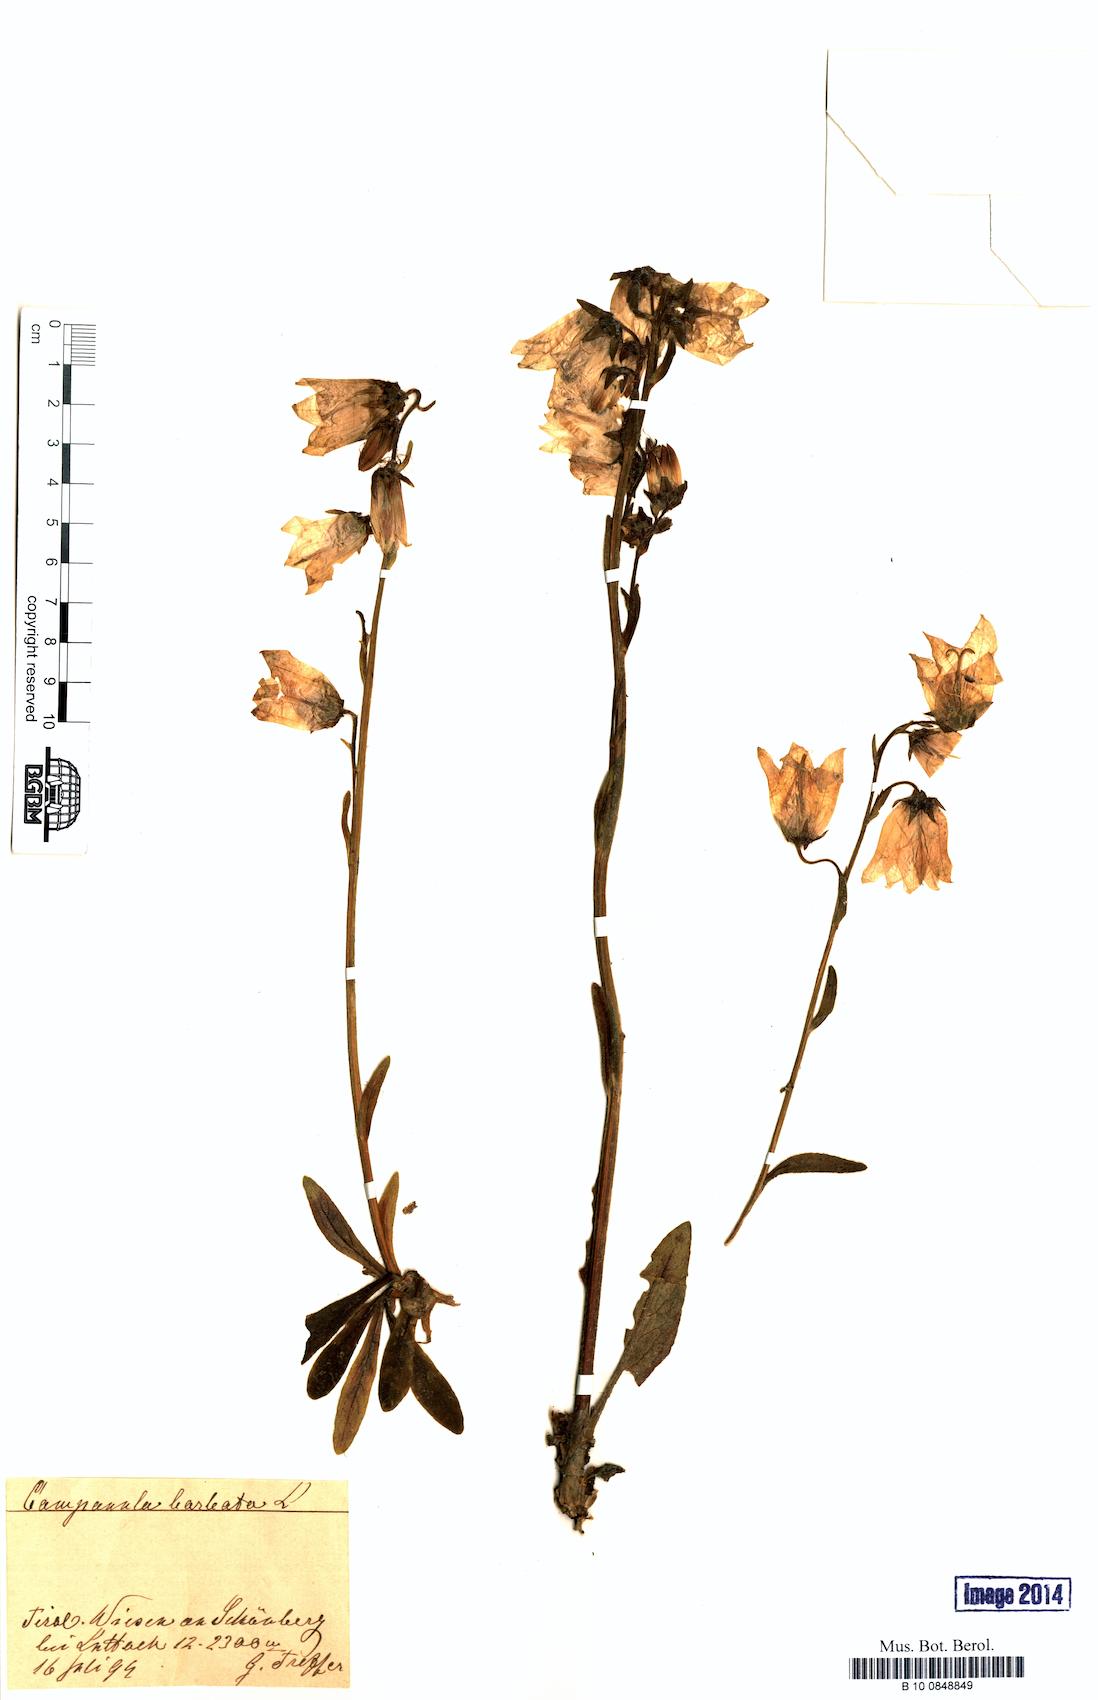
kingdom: Plantae
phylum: Tracheophyta
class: Magnoliopsida
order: Asterales
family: Campanulaceae
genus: Campanula
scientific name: Campanula barbata
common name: Bearded bellflower
